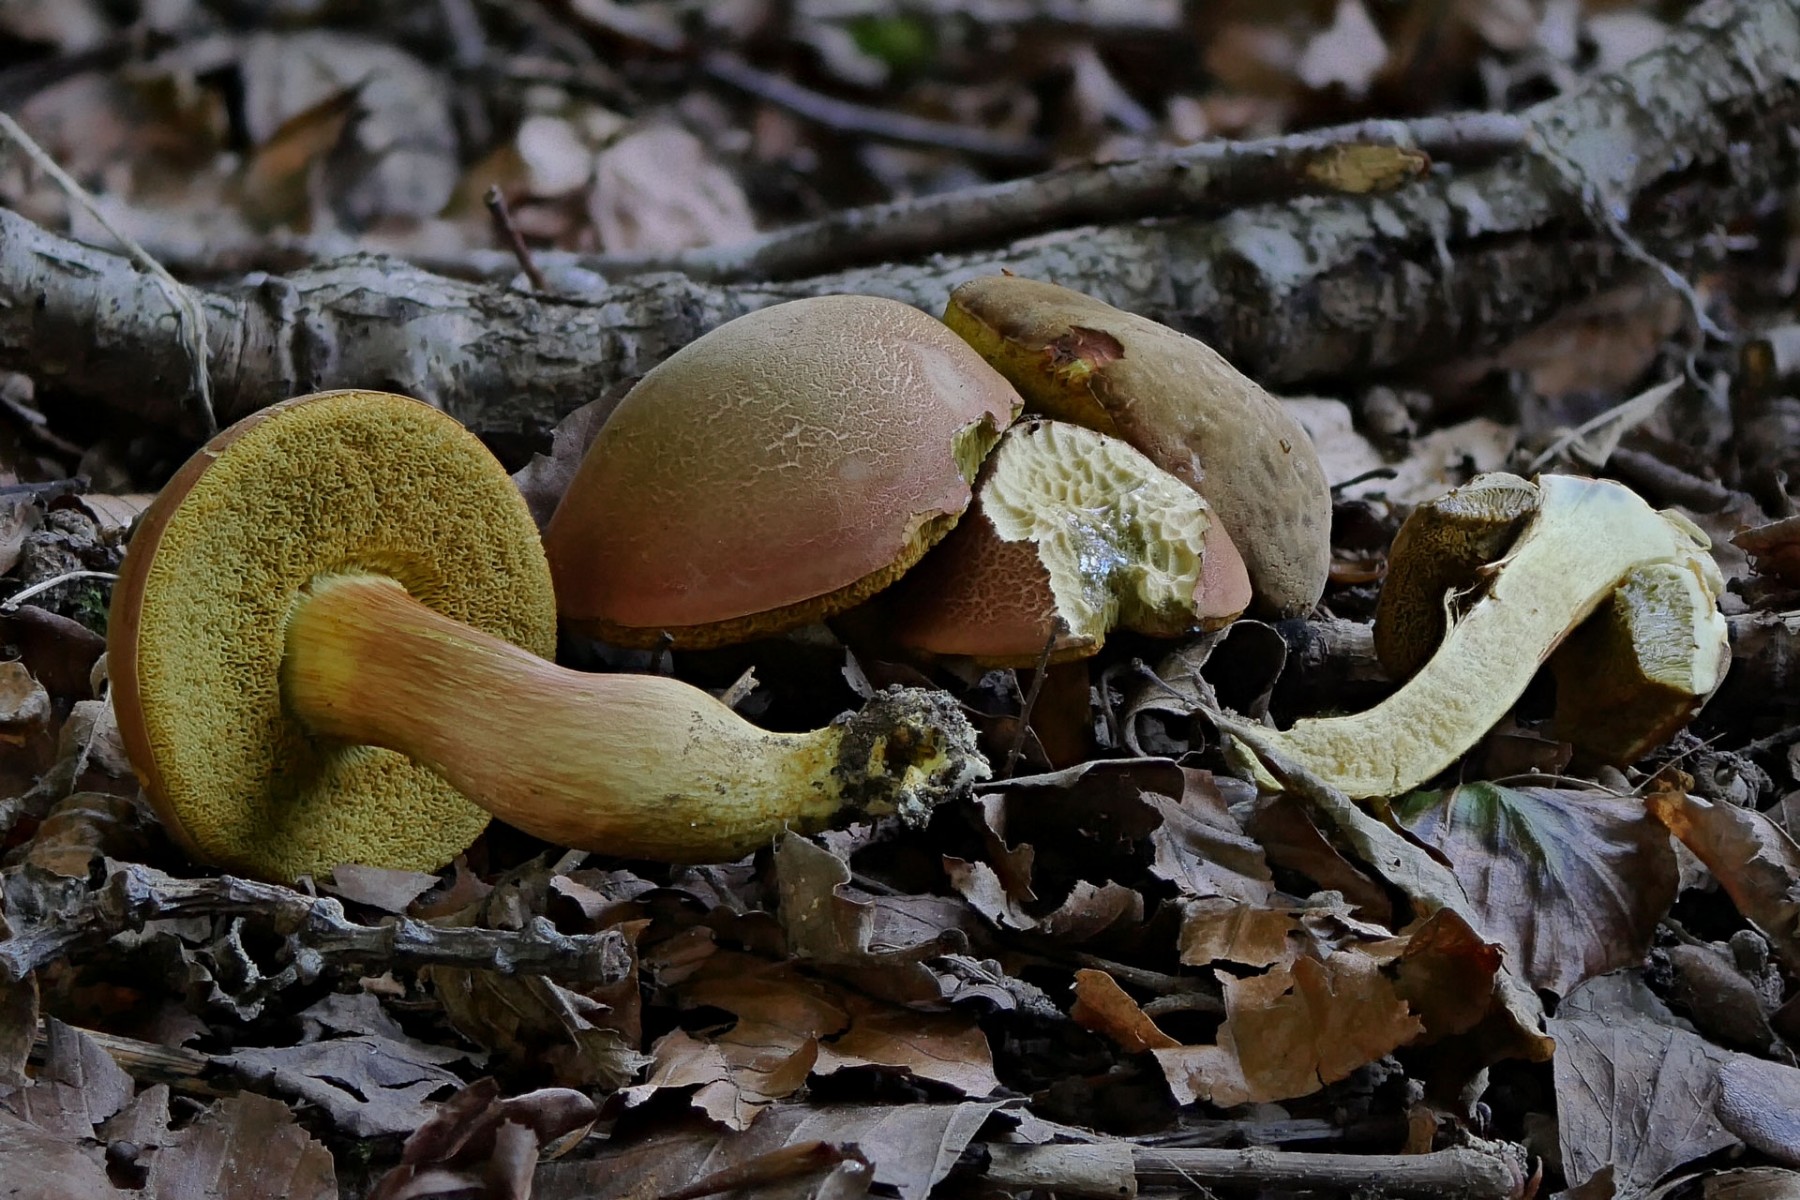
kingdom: Fungi
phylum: Basidiomycota
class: Agaricomycetes
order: Boletales
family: Boletaceae
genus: Hortiboletus
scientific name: Hortiboletus engelii
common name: fersken-rørhat
